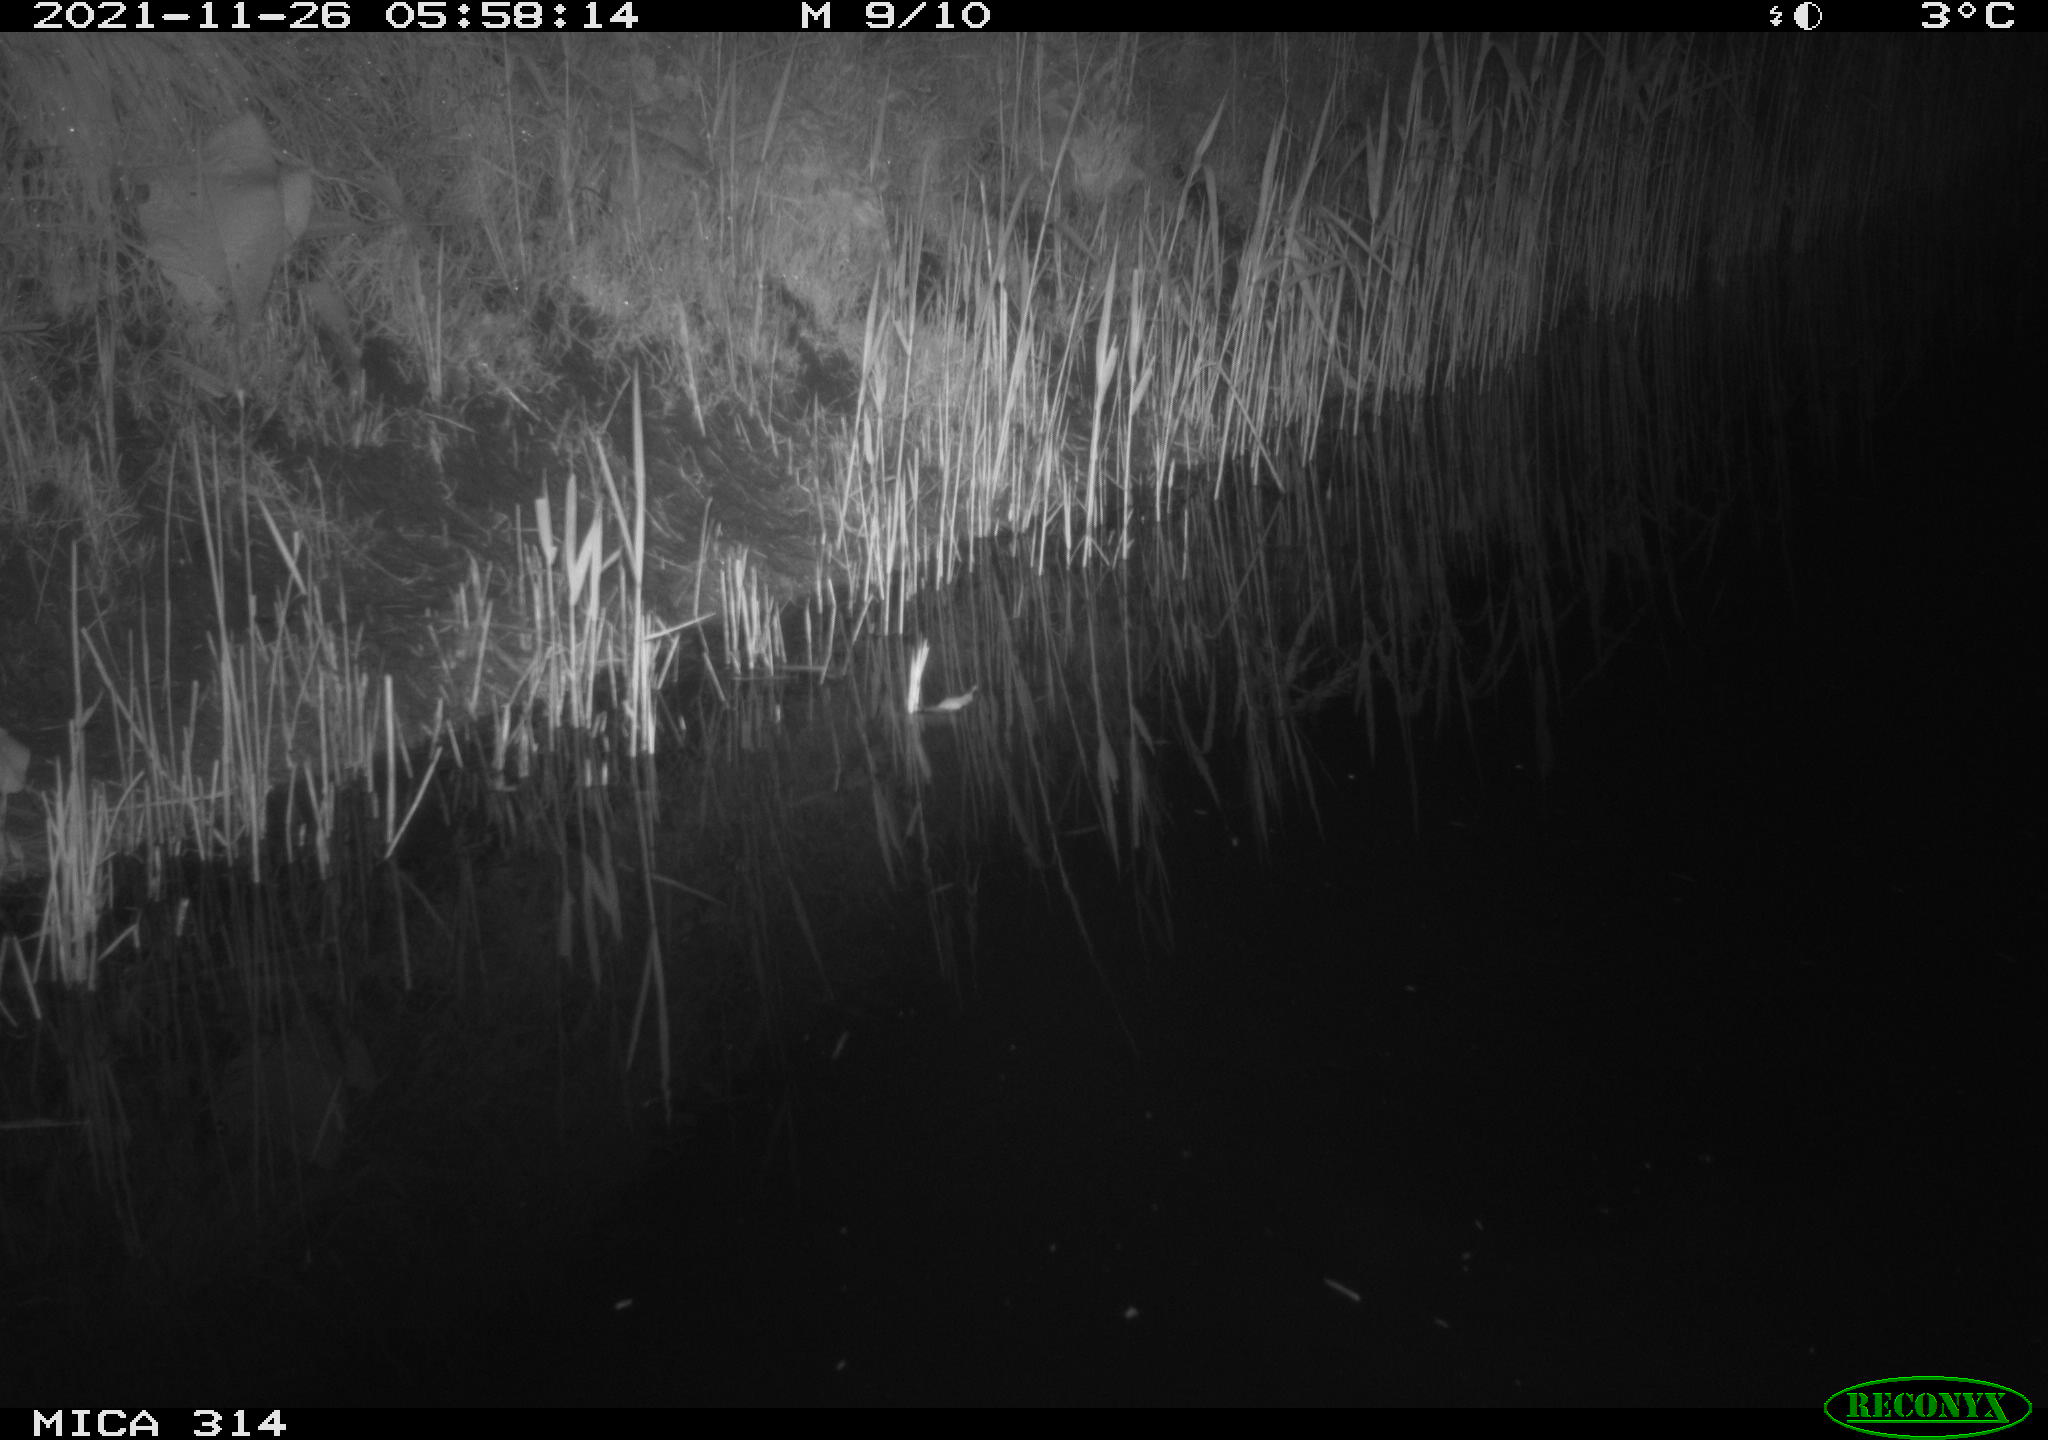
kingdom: Animalia
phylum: Chordata
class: Mammalia
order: Rodentia
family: Muridae
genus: Rattus
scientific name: Rattus norvegicus
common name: Brown rat
